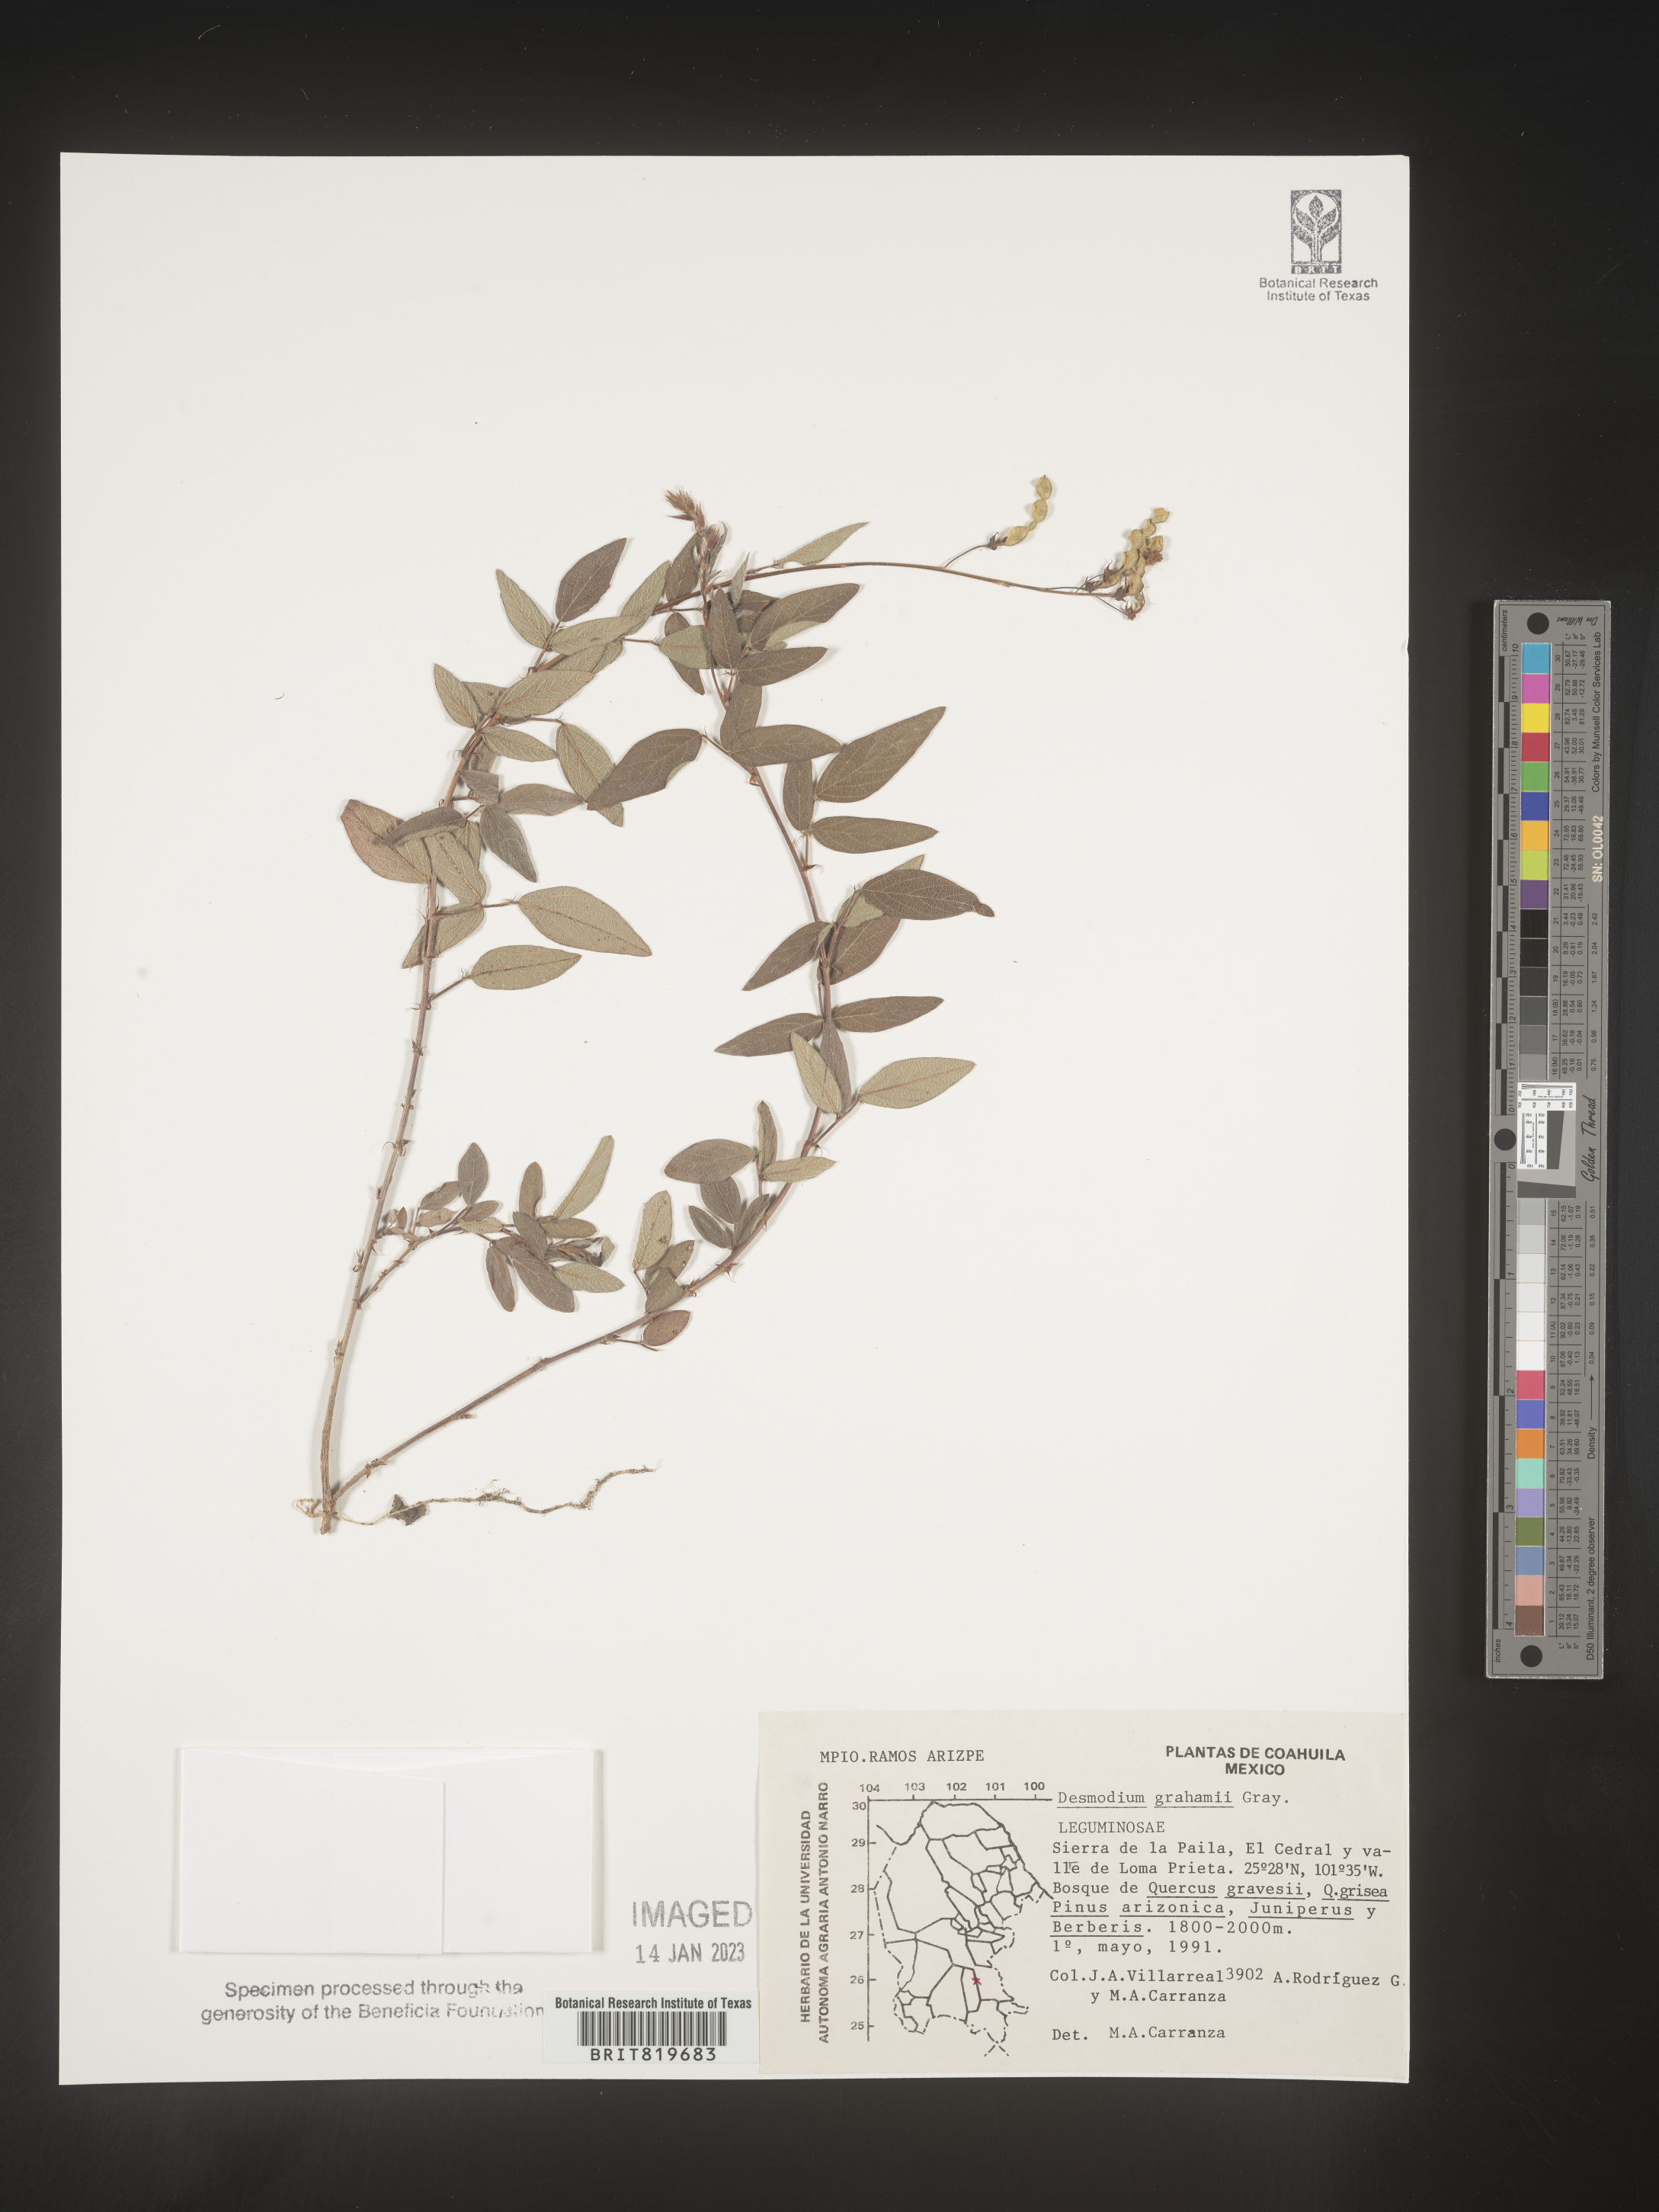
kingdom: Plantae
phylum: Tracheophyta
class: Magnoliopsida
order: Fabales
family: Fabaceae
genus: Desmodium
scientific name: Desmodium
